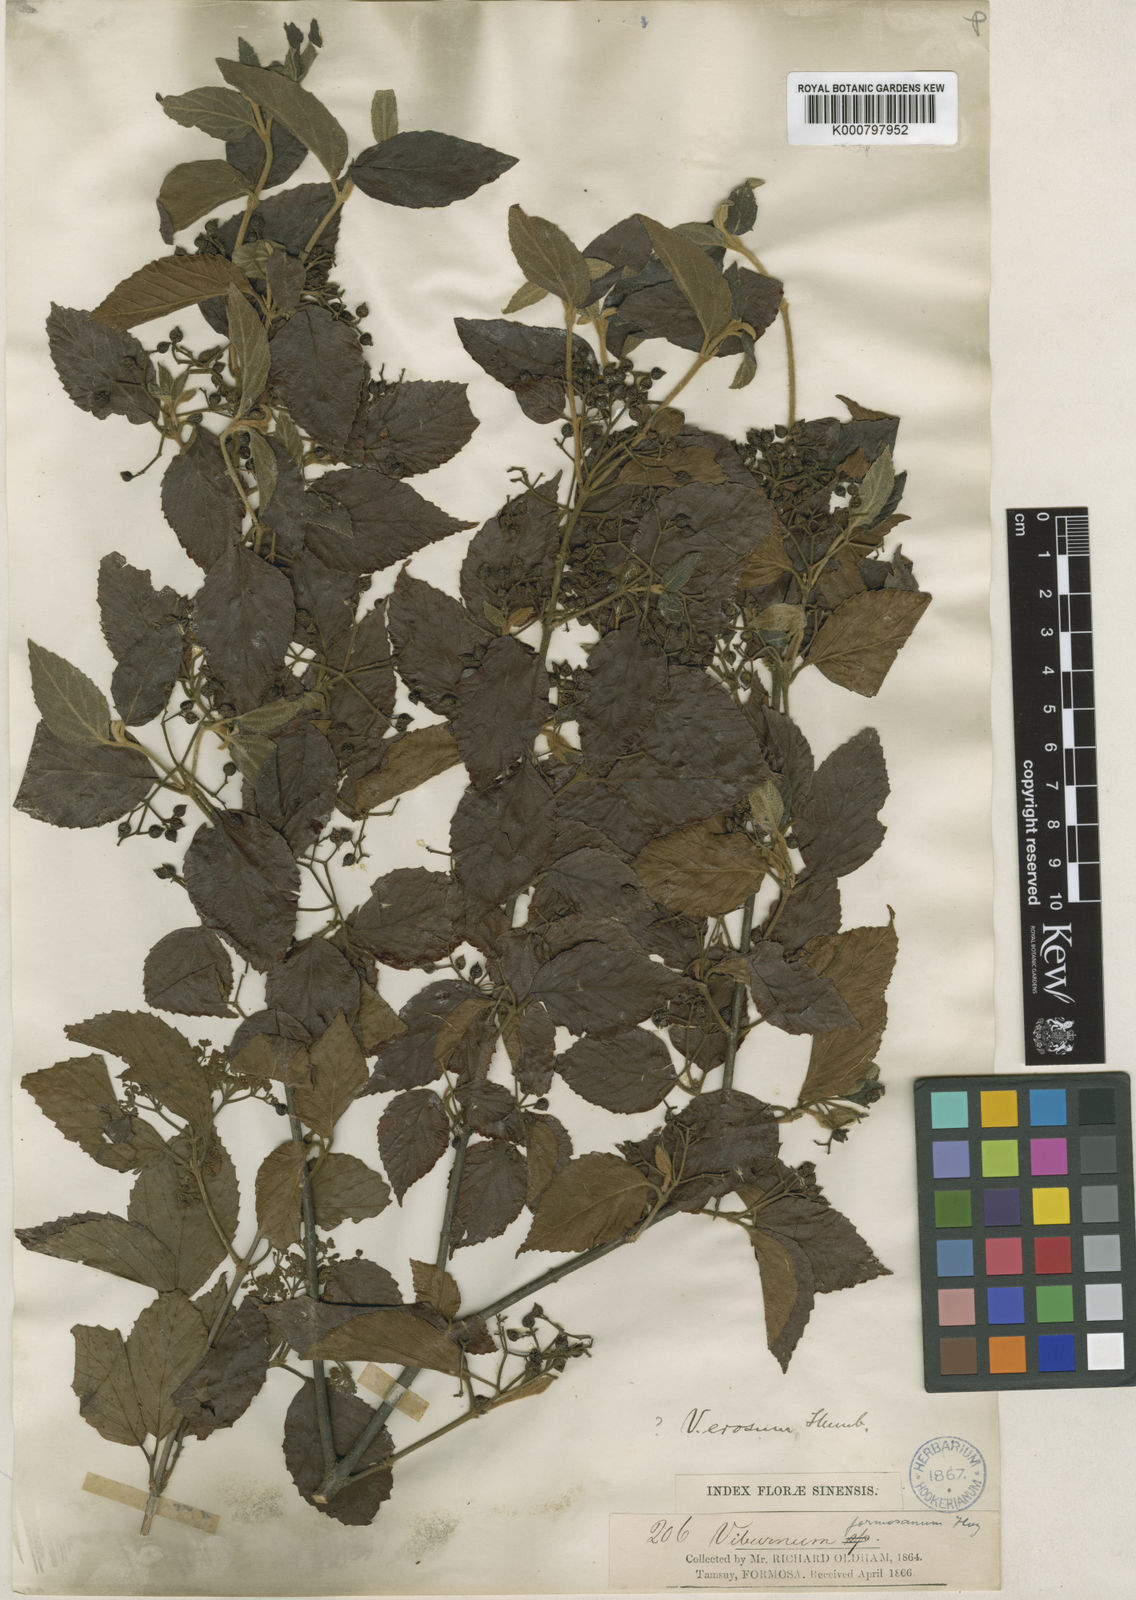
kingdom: Plantae
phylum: Tracheophyta
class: Magnoliopsida
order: Dipsacales
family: Viburnaceae
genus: Viburnum
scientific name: Viburnum luzonicum
